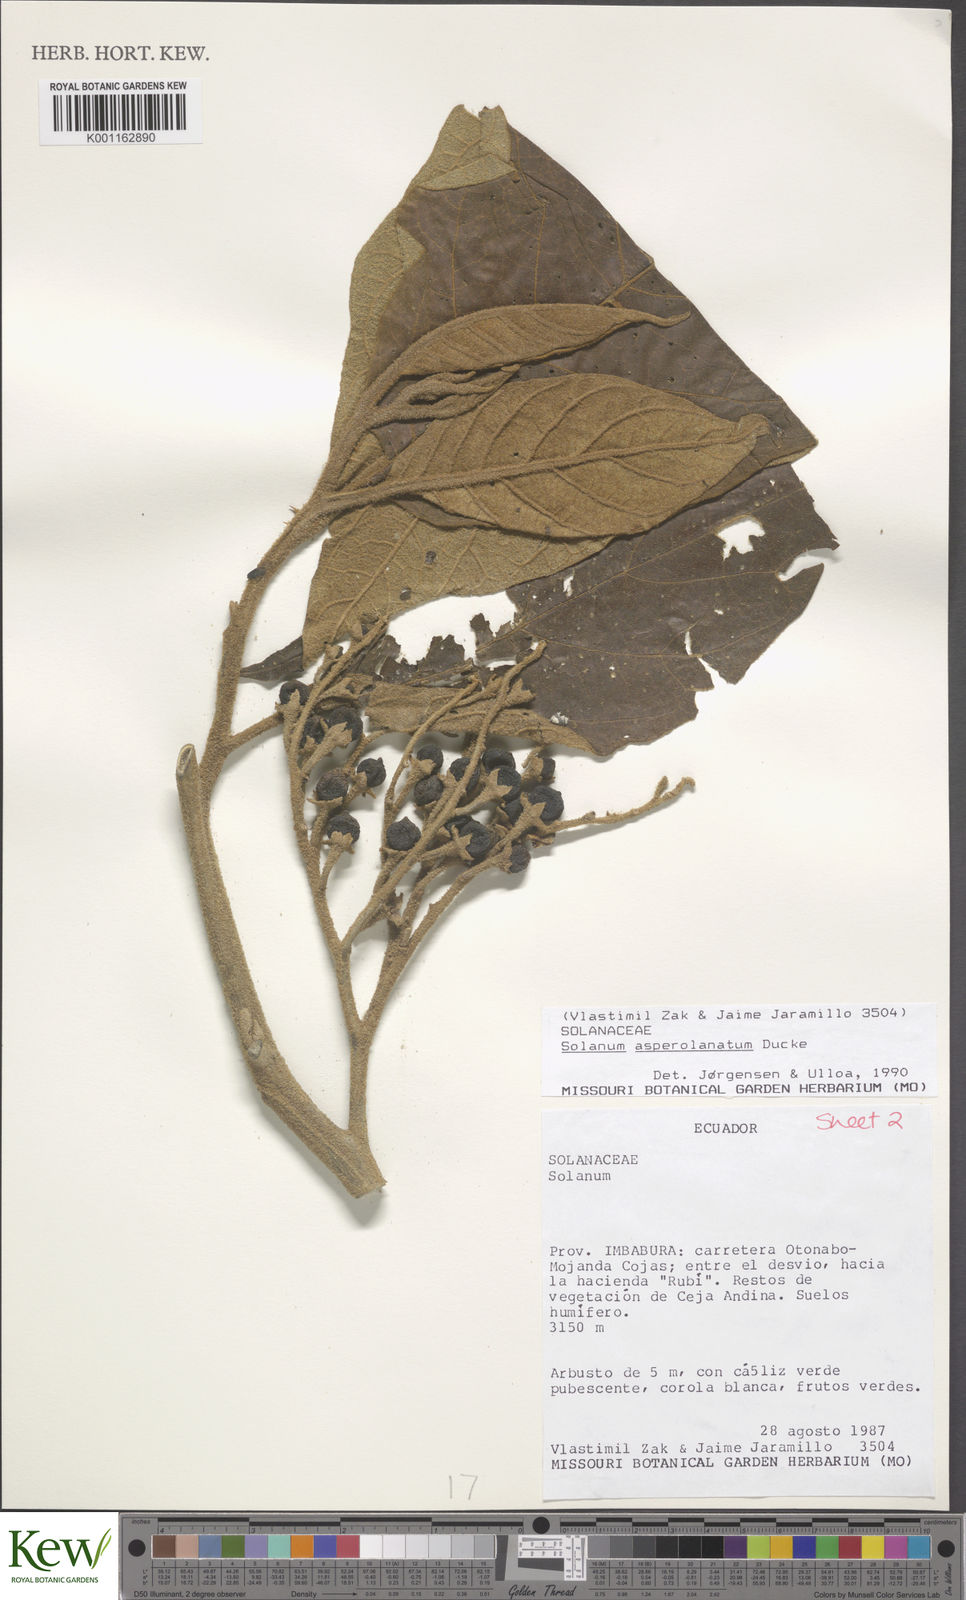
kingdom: Plantae
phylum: Tracheophyta
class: Magnoliopsida
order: Solanales
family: Solanaceae
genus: Solanum
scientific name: Solanum asperolanatum
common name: Devil's-fig
